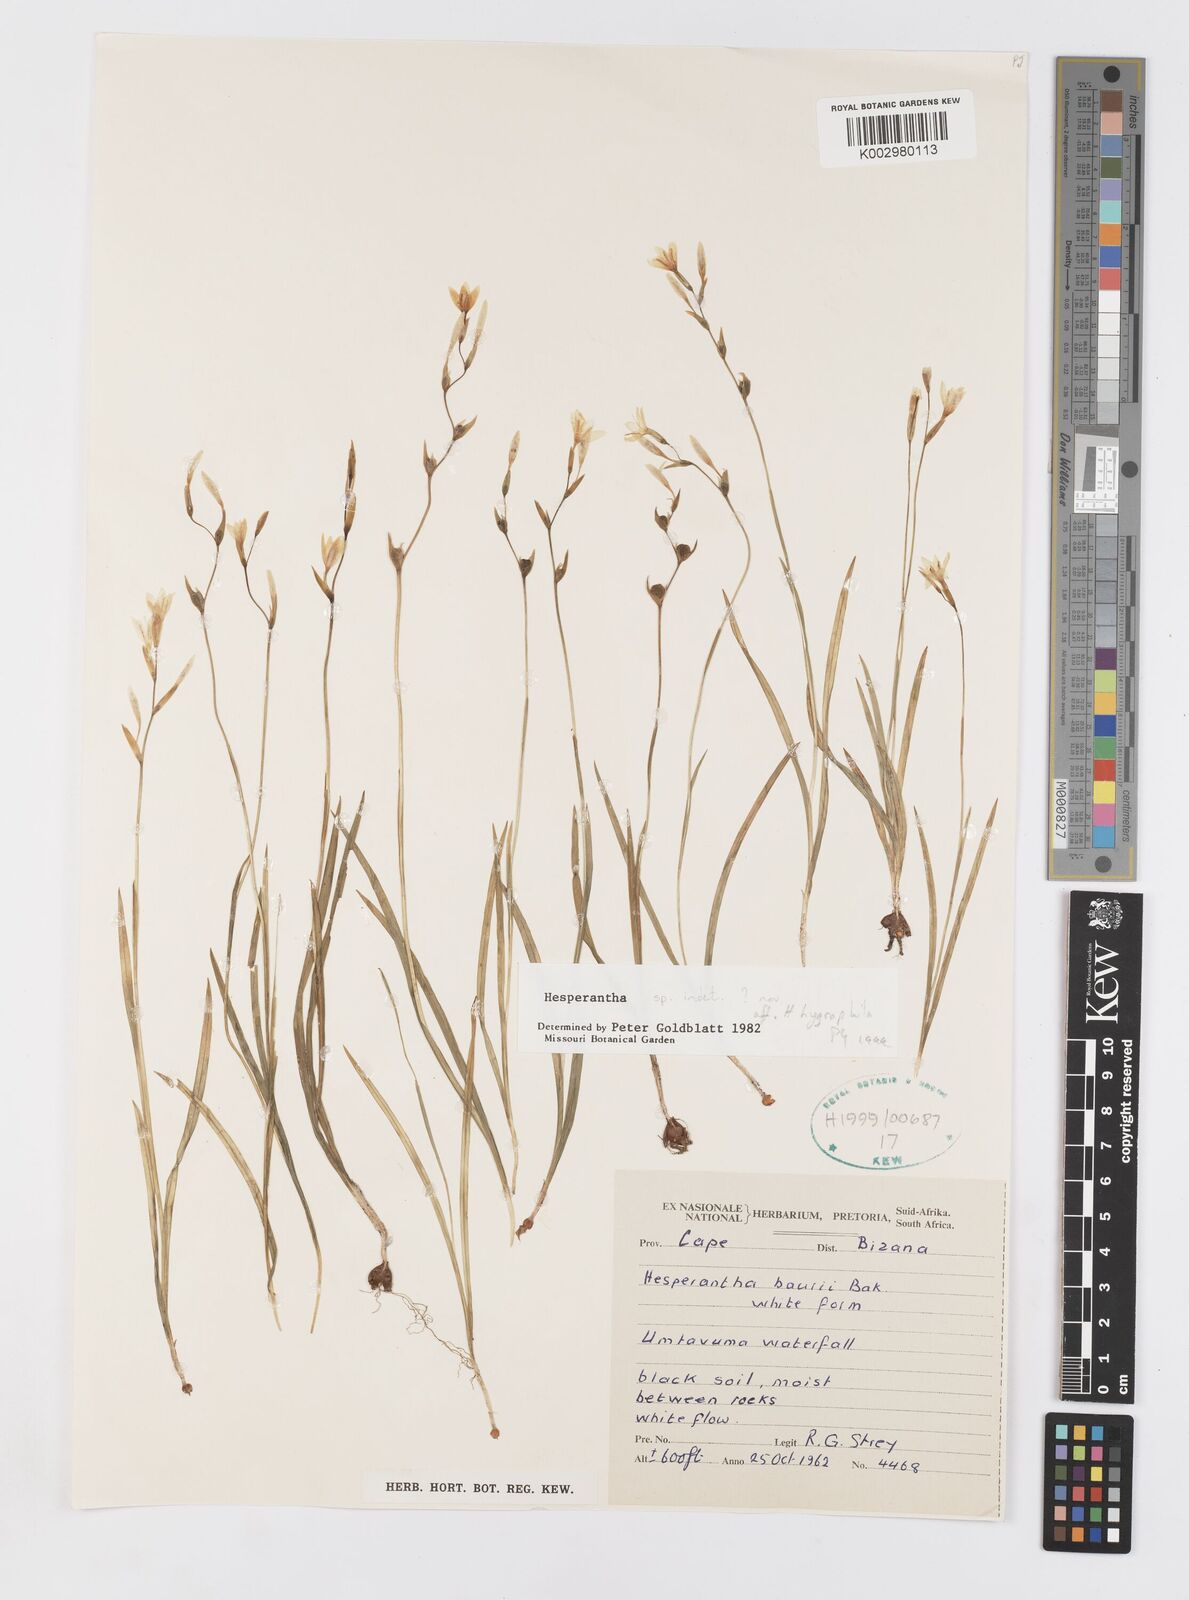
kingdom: Plantae
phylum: Tracheophyta
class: Liliopsida
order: Asparagales
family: Iridaceae
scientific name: Iridaceae
